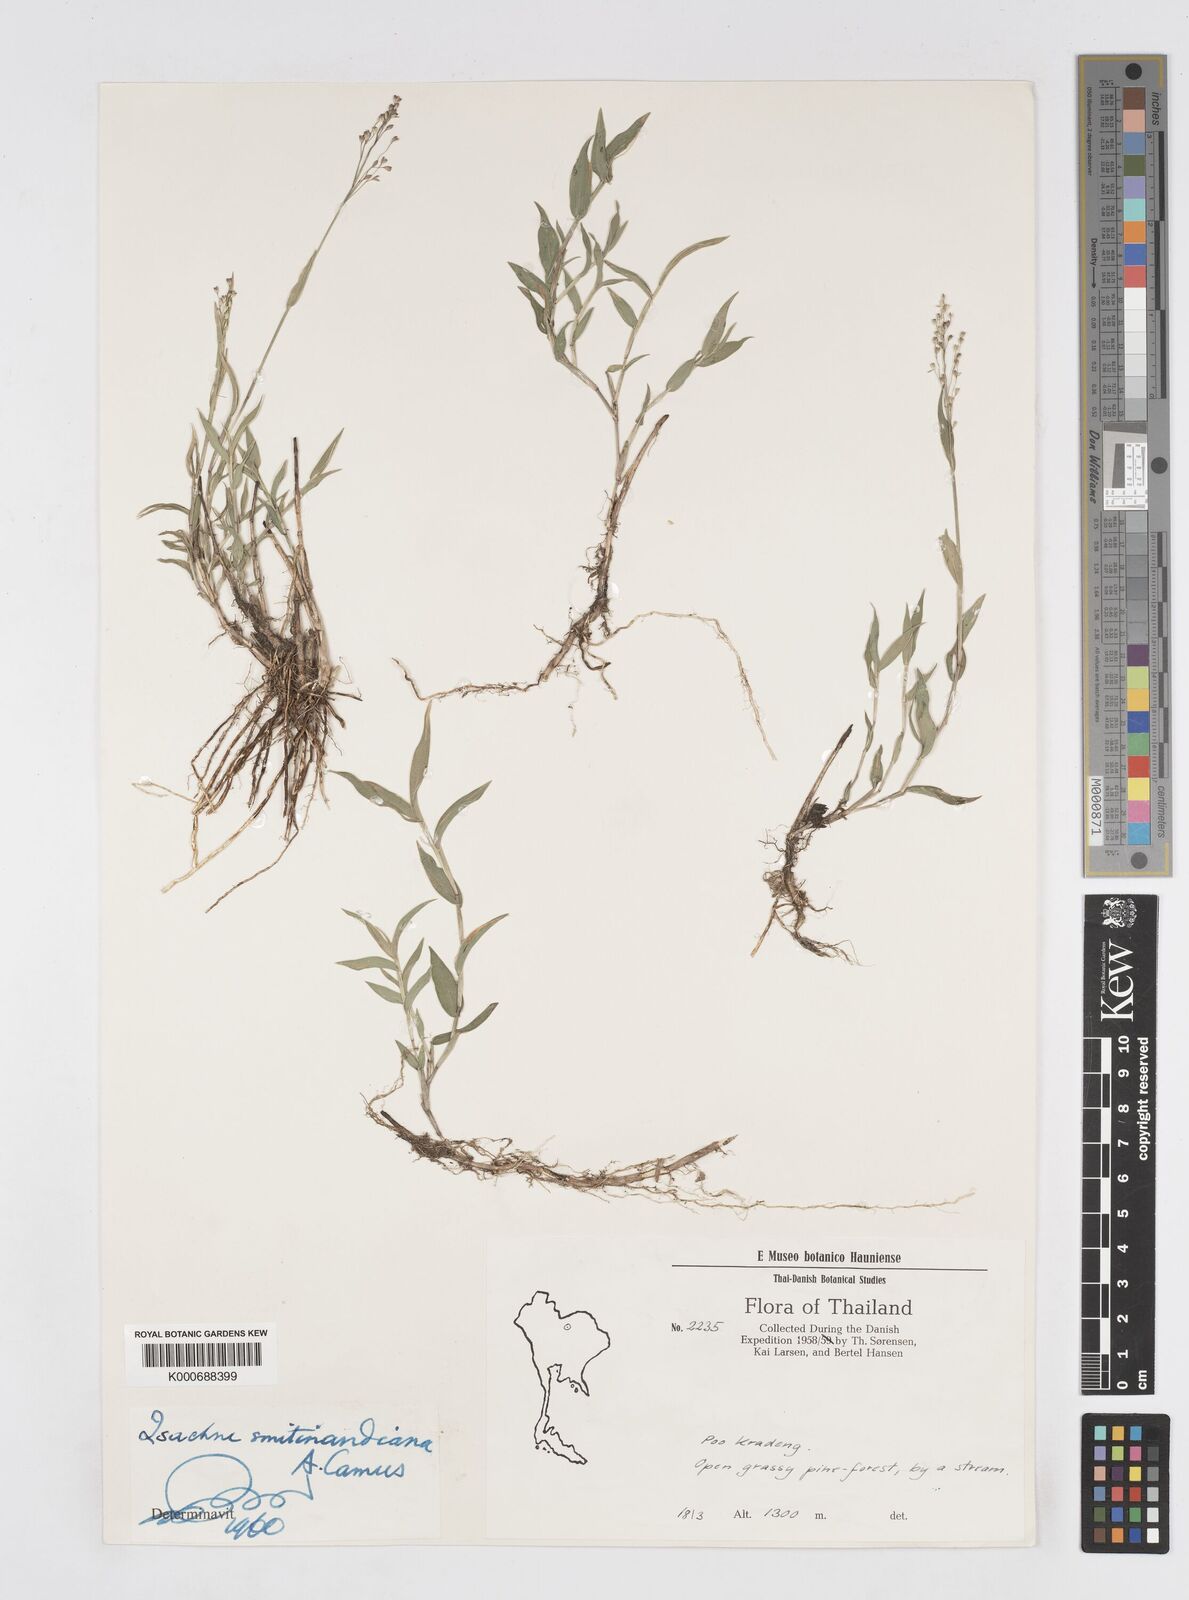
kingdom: Plantae
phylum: Tracheophyta
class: Liliopsida
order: Poales
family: Poaceae
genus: Isachne
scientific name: Isachne smitinandiana
